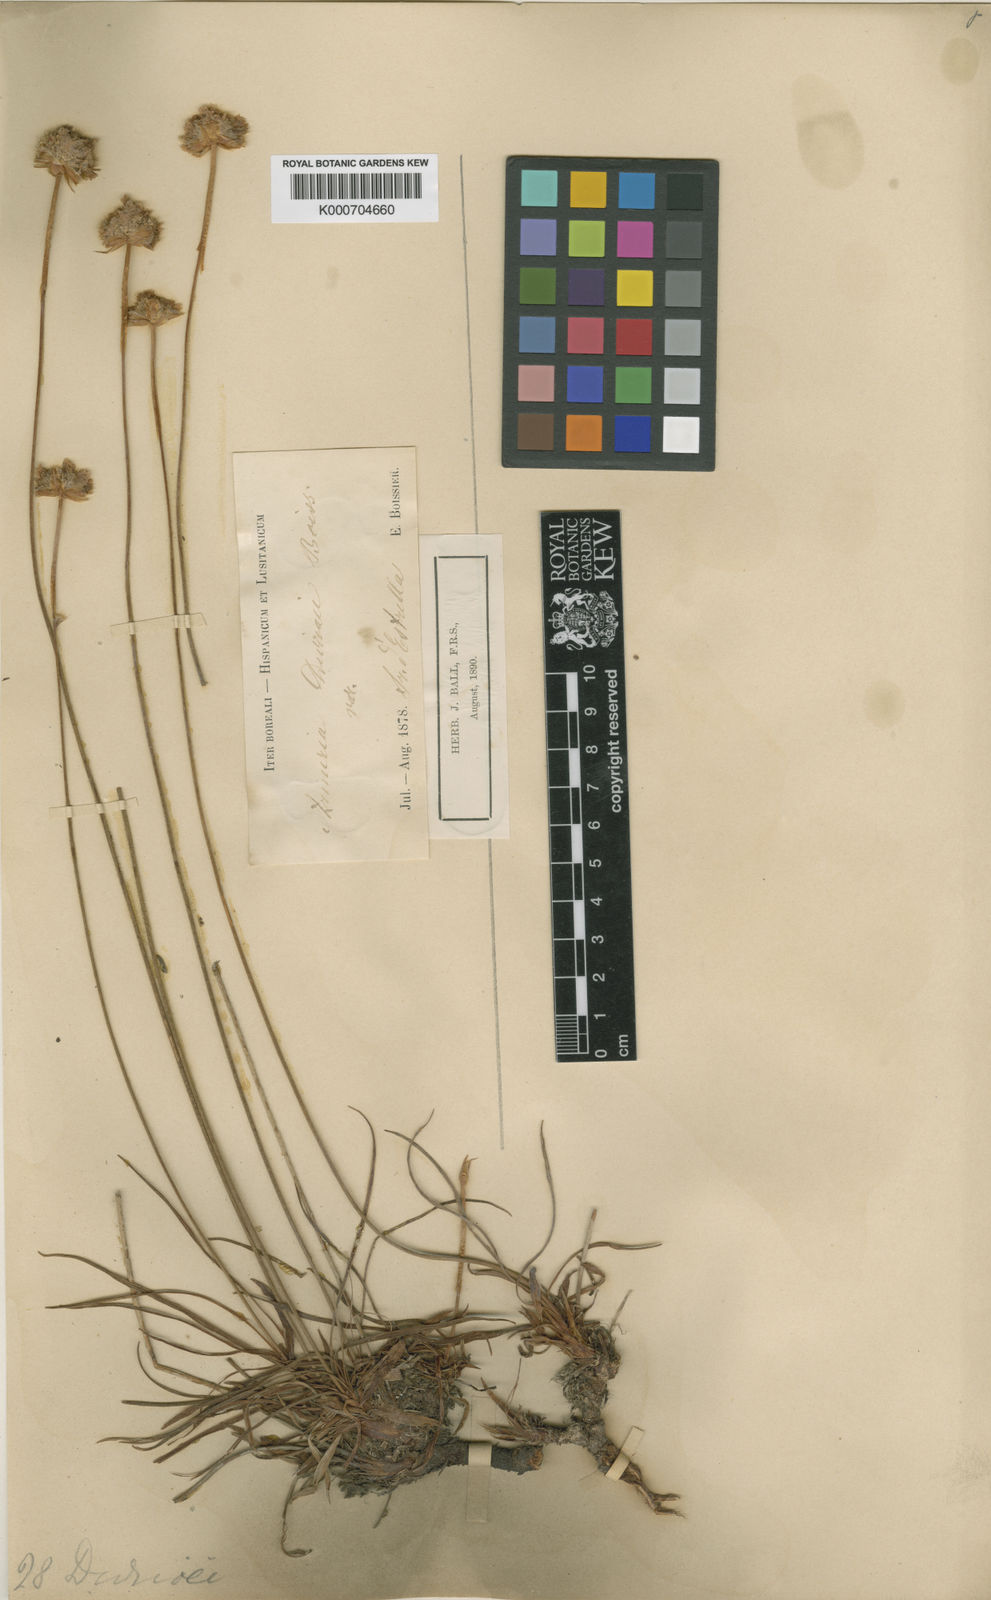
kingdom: Plantae
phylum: Tracheophyta
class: Magnoliopsida
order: Caryophyllales
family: Plumbaginaceae
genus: Armeria
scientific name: Armeria duriaei
